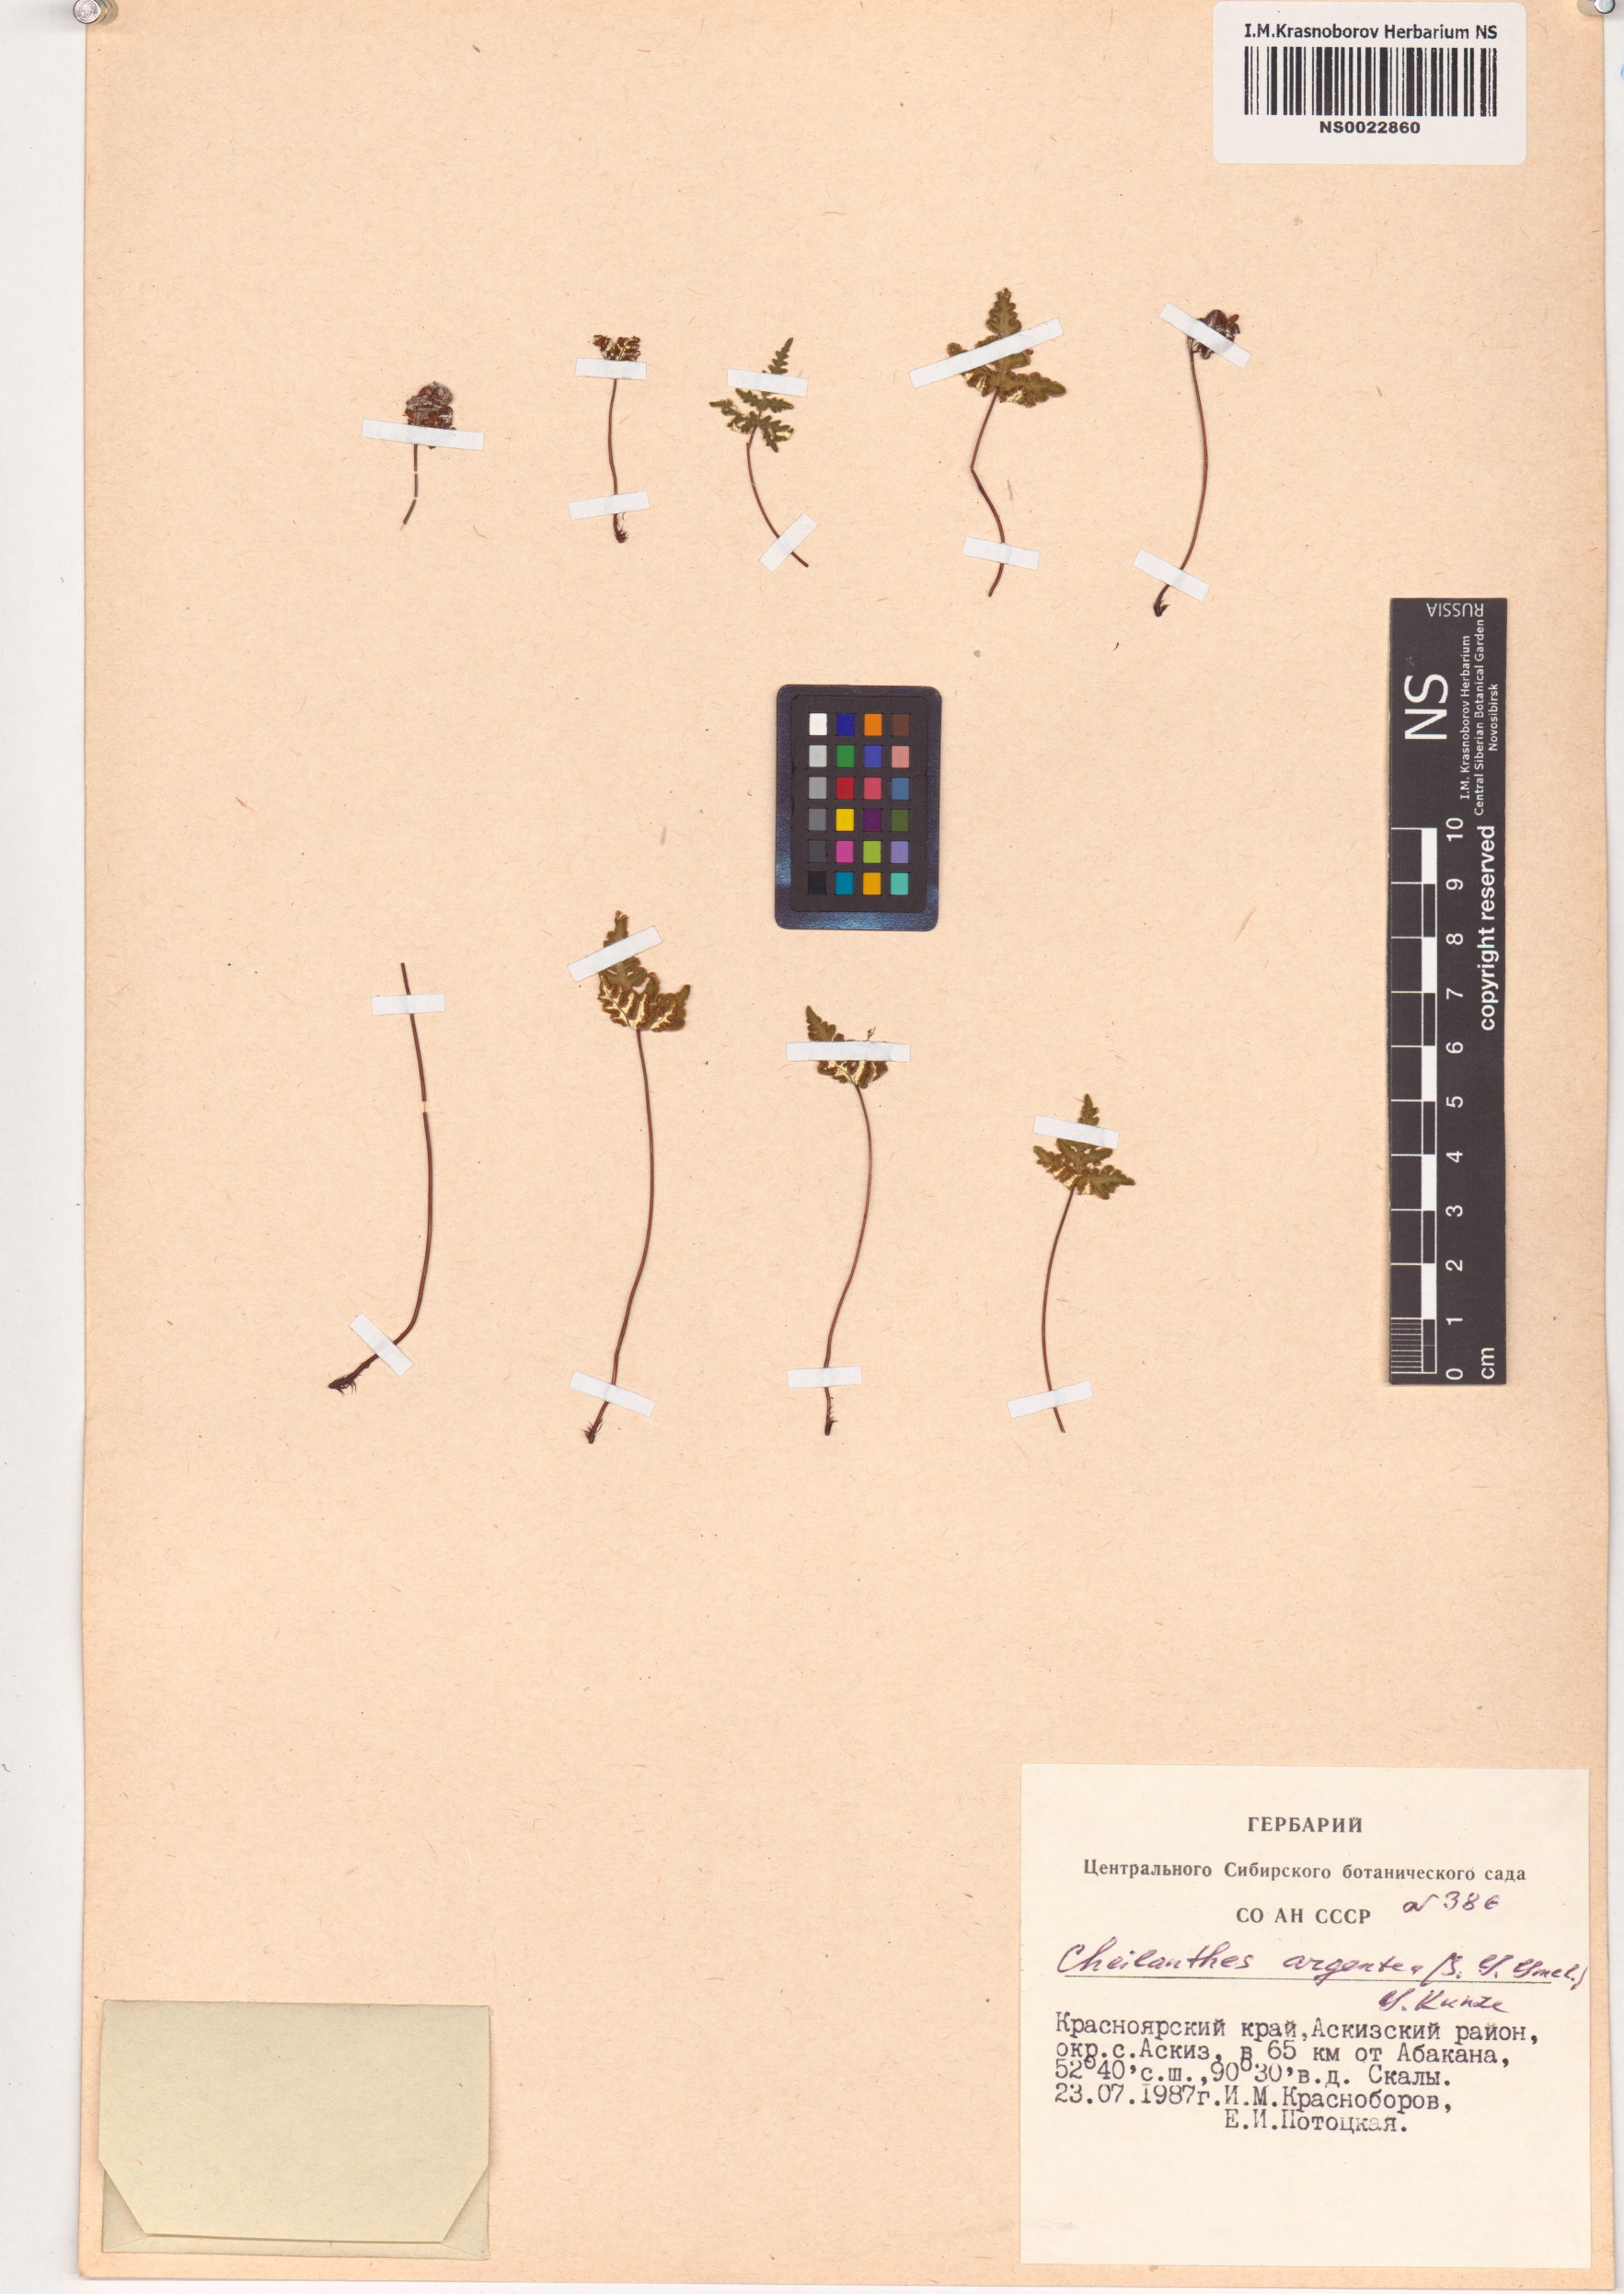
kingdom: Plantae
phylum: Tracheophyta
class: Polypodiopsida
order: Polypodiales
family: Pteridaceae
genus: Aleuritopteris
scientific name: Aleuritopteris argentea
